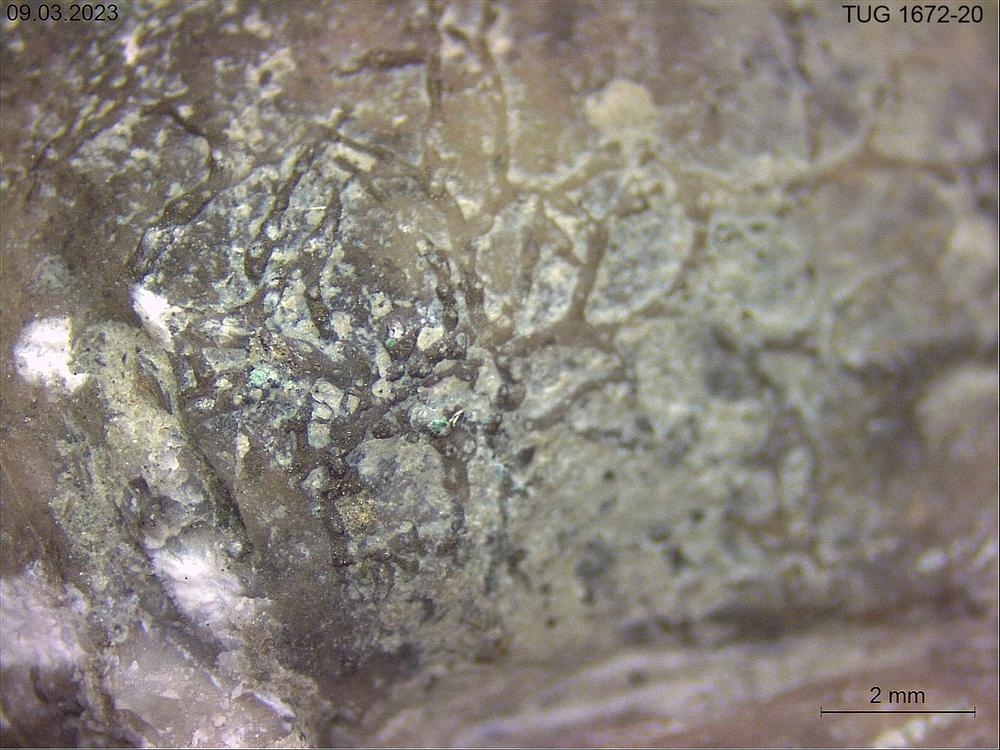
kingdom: Animalia
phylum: Bryozoa
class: Stenolaemata
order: Cyclostomatida
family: Corynotrypidae
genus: Corynotrypa
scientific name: Corynotrypa
